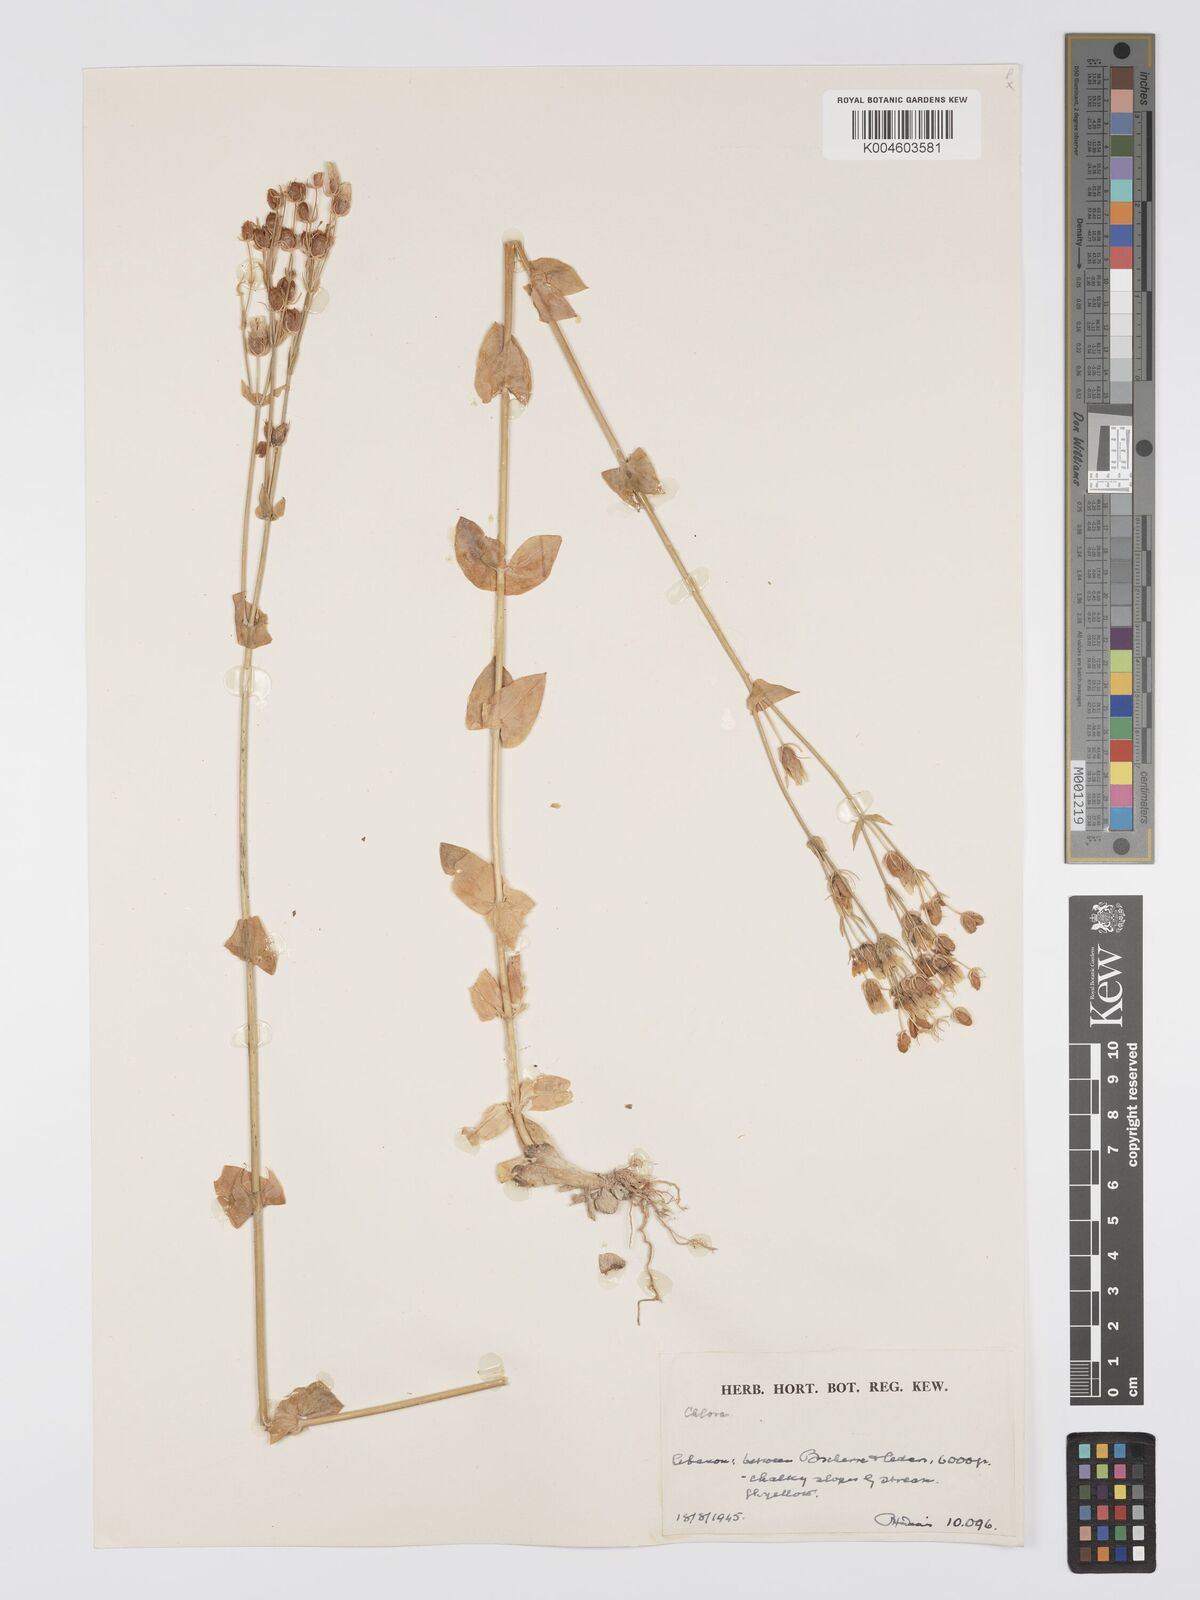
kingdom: Plantae
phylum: Tracheophyta
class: Magnoliopsida
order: Gentianales
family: Gentianaceae
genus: Blackstonia
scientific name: Blackstonia perfoliata
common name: Yellow-wort
